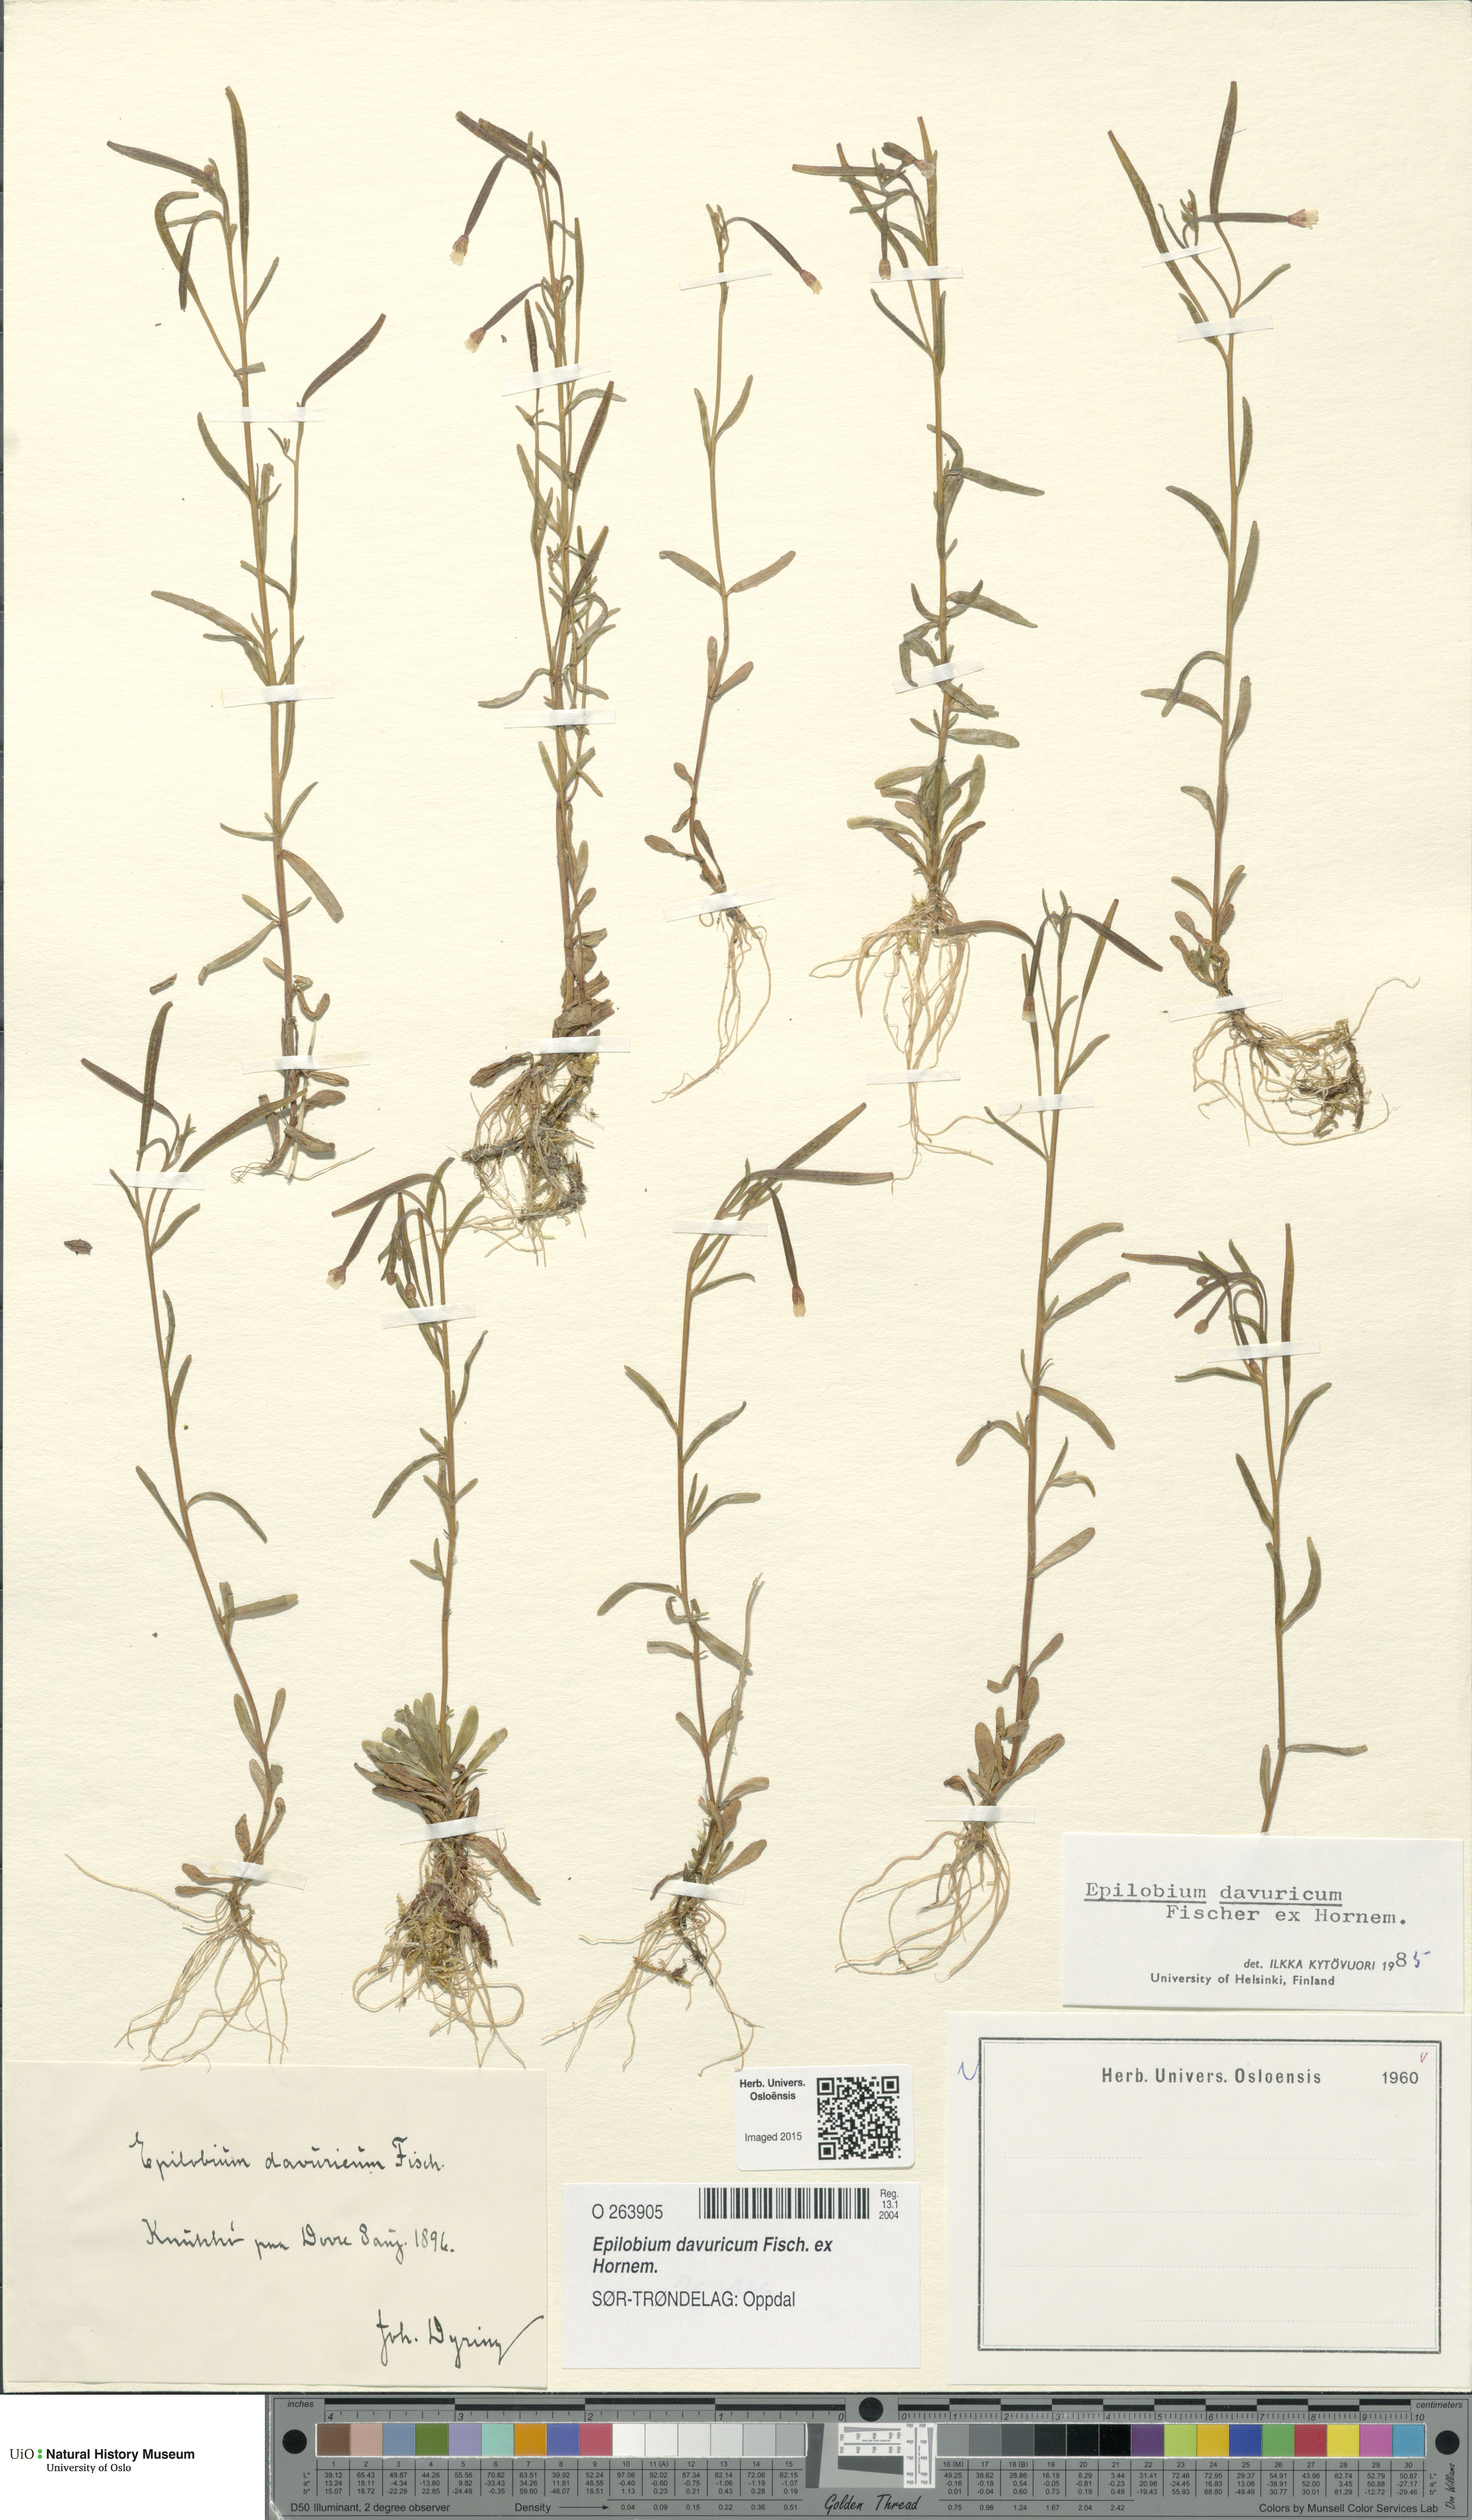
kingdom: Plantae
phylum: Tracheophyta
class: Magnoliopsida
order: Myrtales
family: Onagraceae
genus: Epilobium
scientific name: Epilobium davuricum
